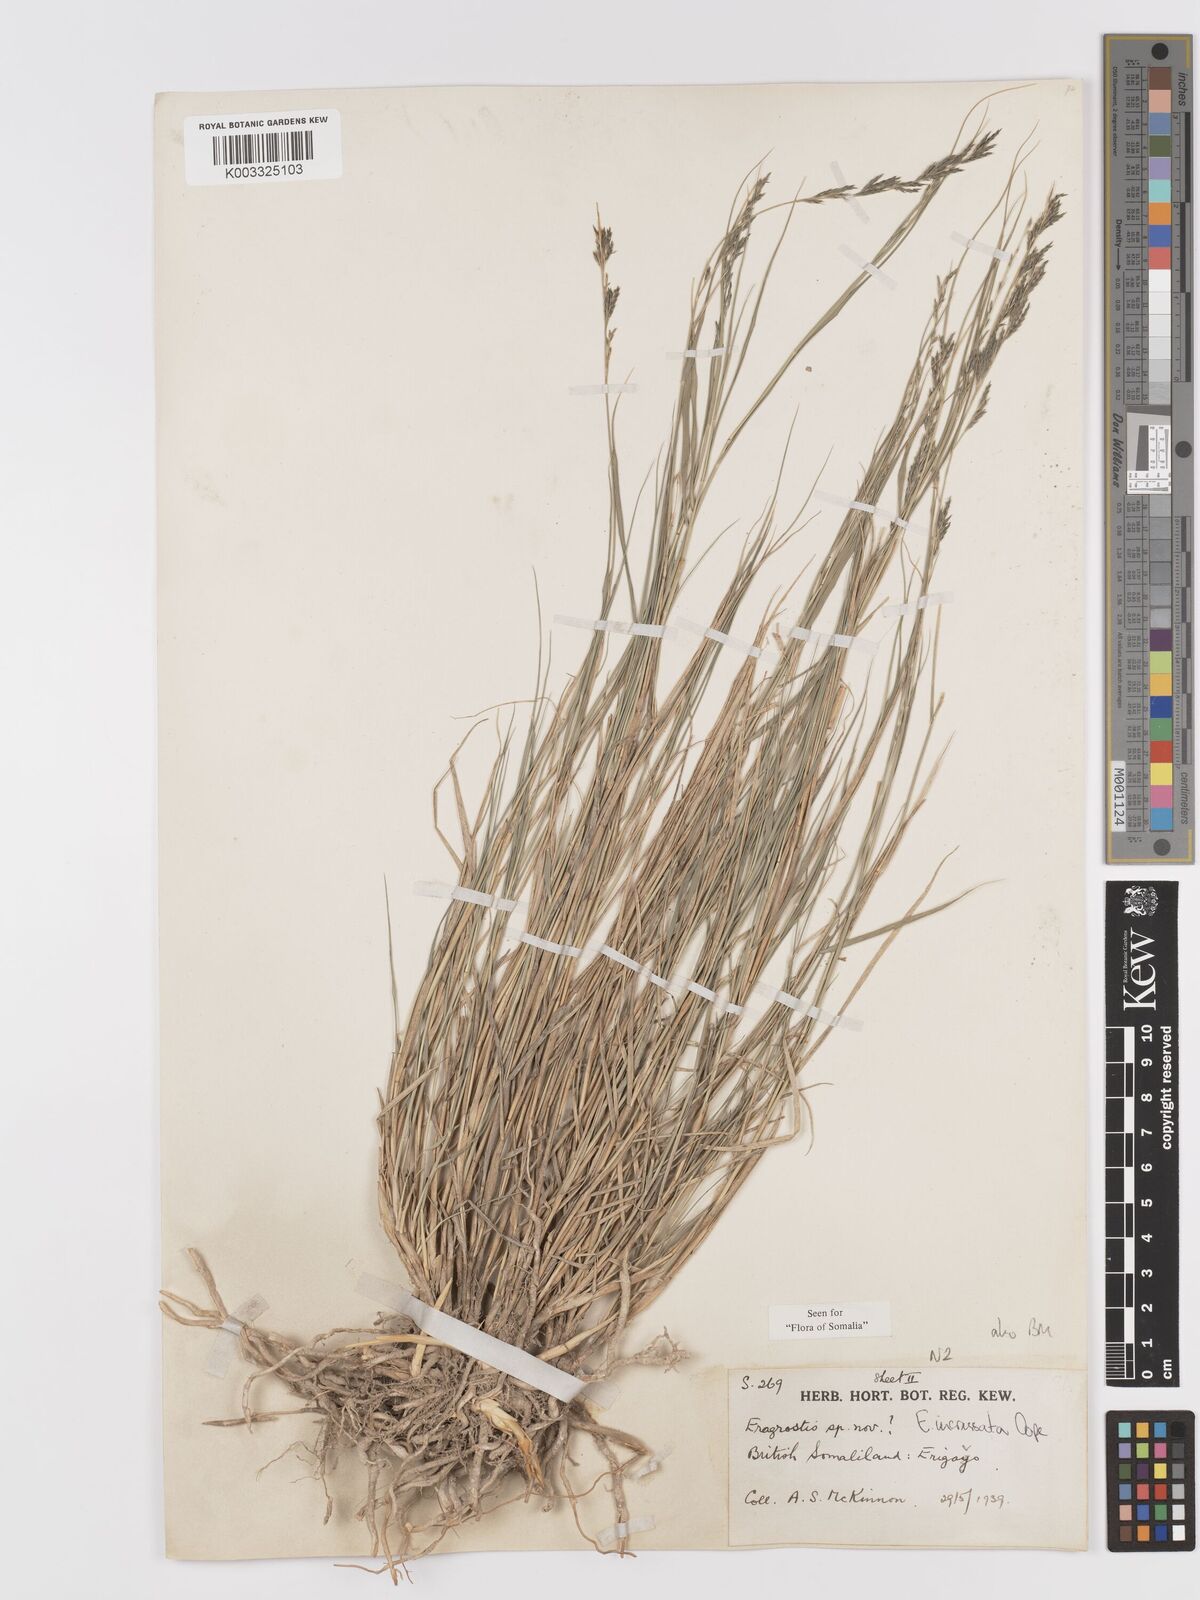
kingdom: Plantae
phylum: Tracheophyta
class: Liliopsida
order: Poales
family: Poaceae
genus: Eragrostis
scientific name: Eragrostis incrassata
